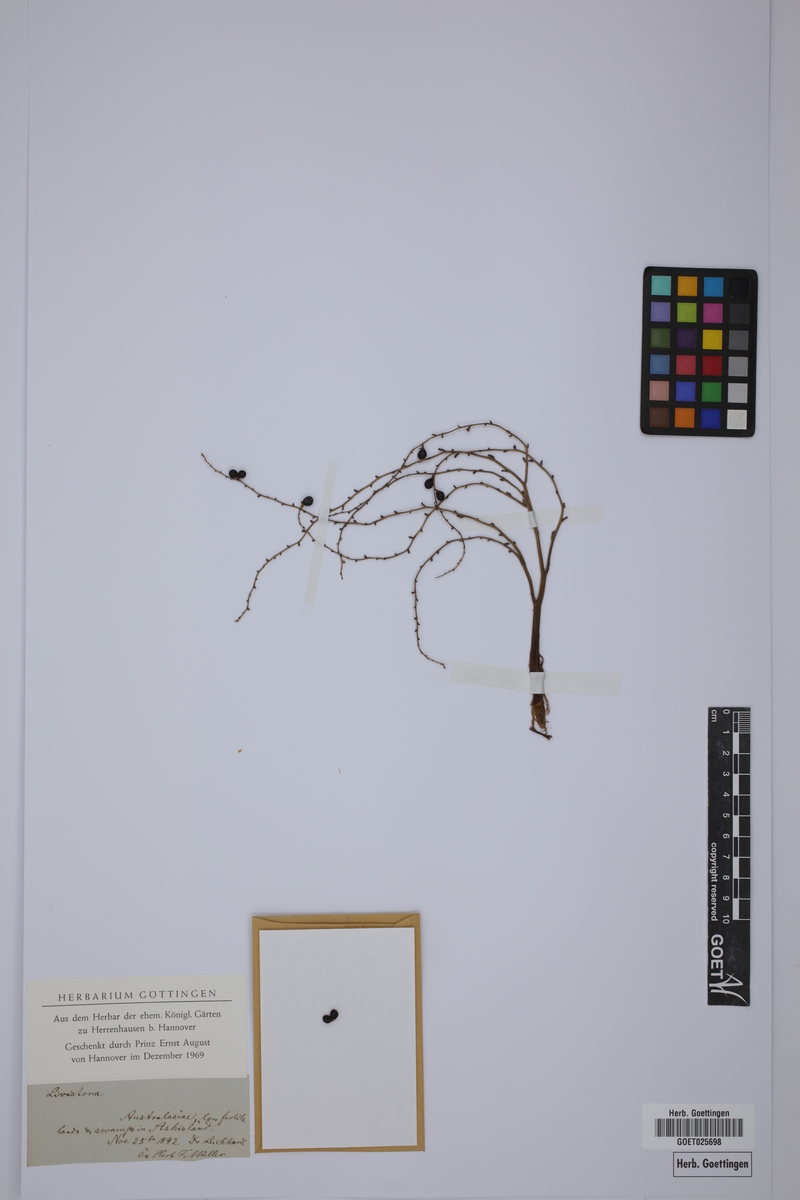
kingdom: Plantae
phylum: Tracheophyta
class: Liliopsida
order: Arecales
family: Arecaceae
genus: Livistona
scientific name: Livistona
